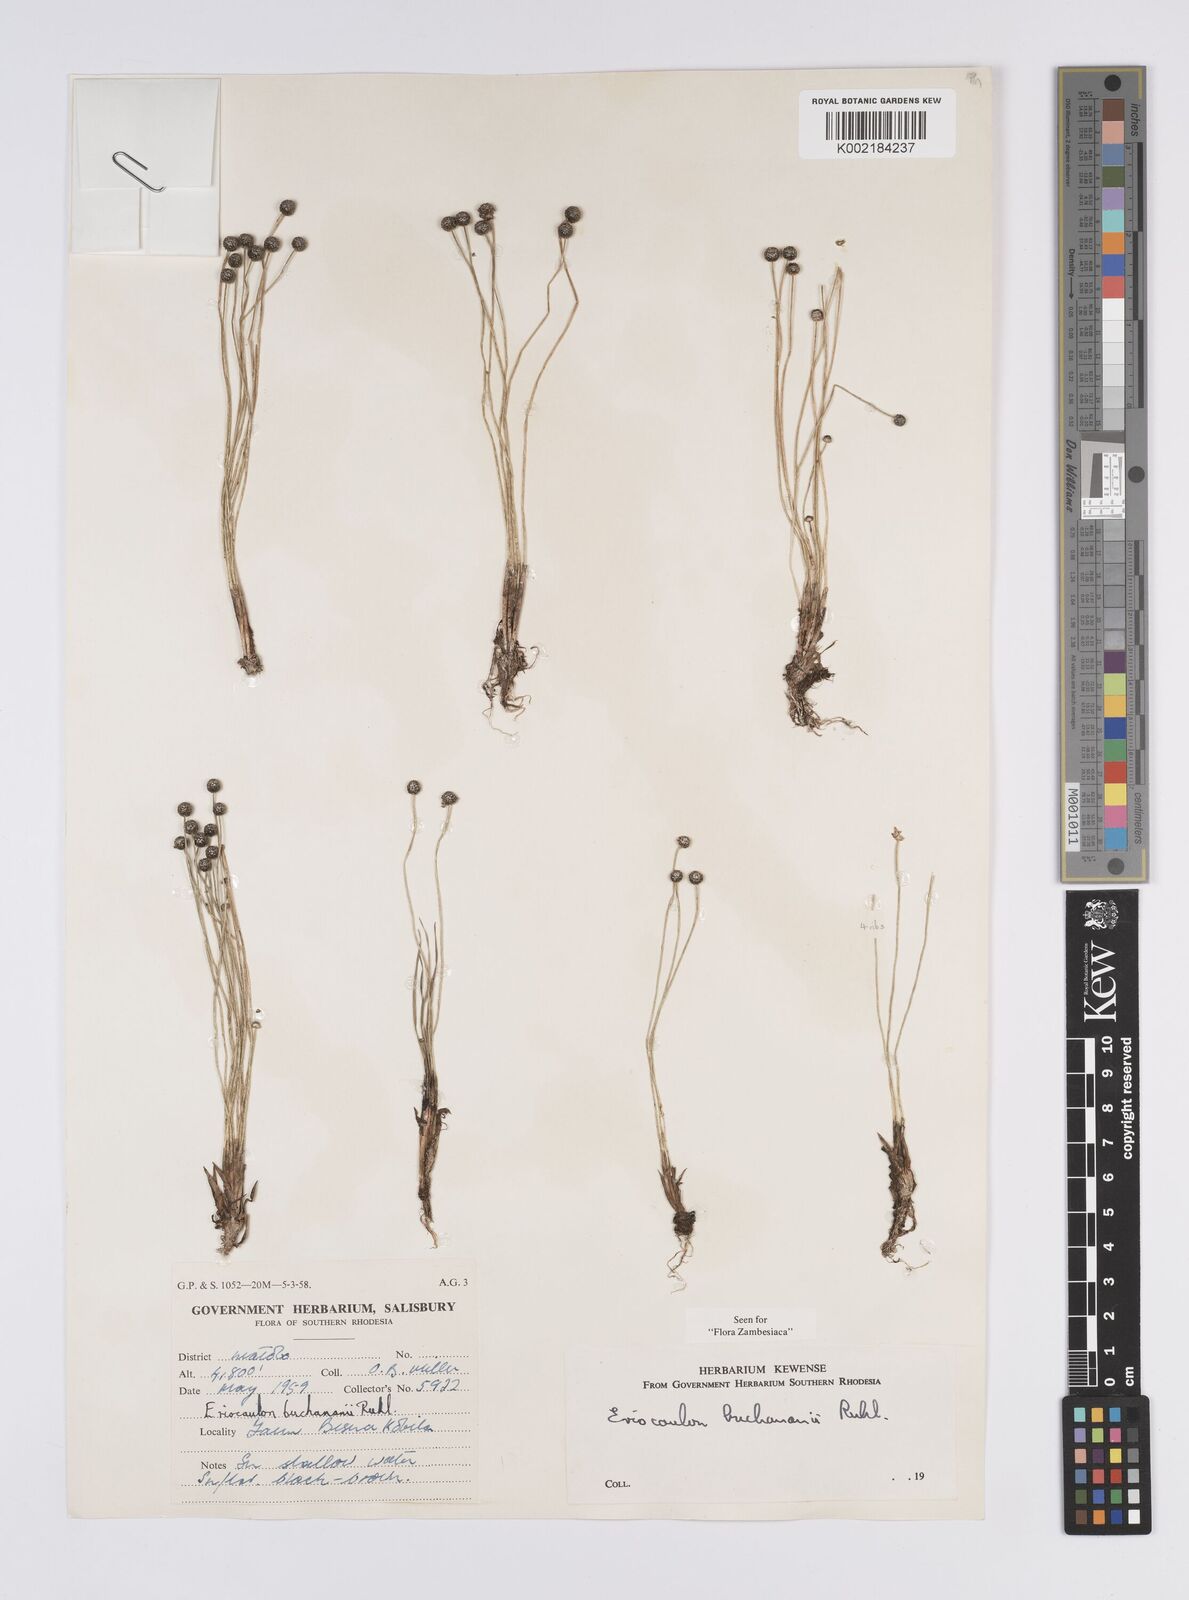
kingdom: Plantae
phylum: Tracheophyta
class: Liliopsida
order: Poales
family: Eriocaulaceae
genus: Eriocaulon
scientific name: Eriocaulon buchananii
